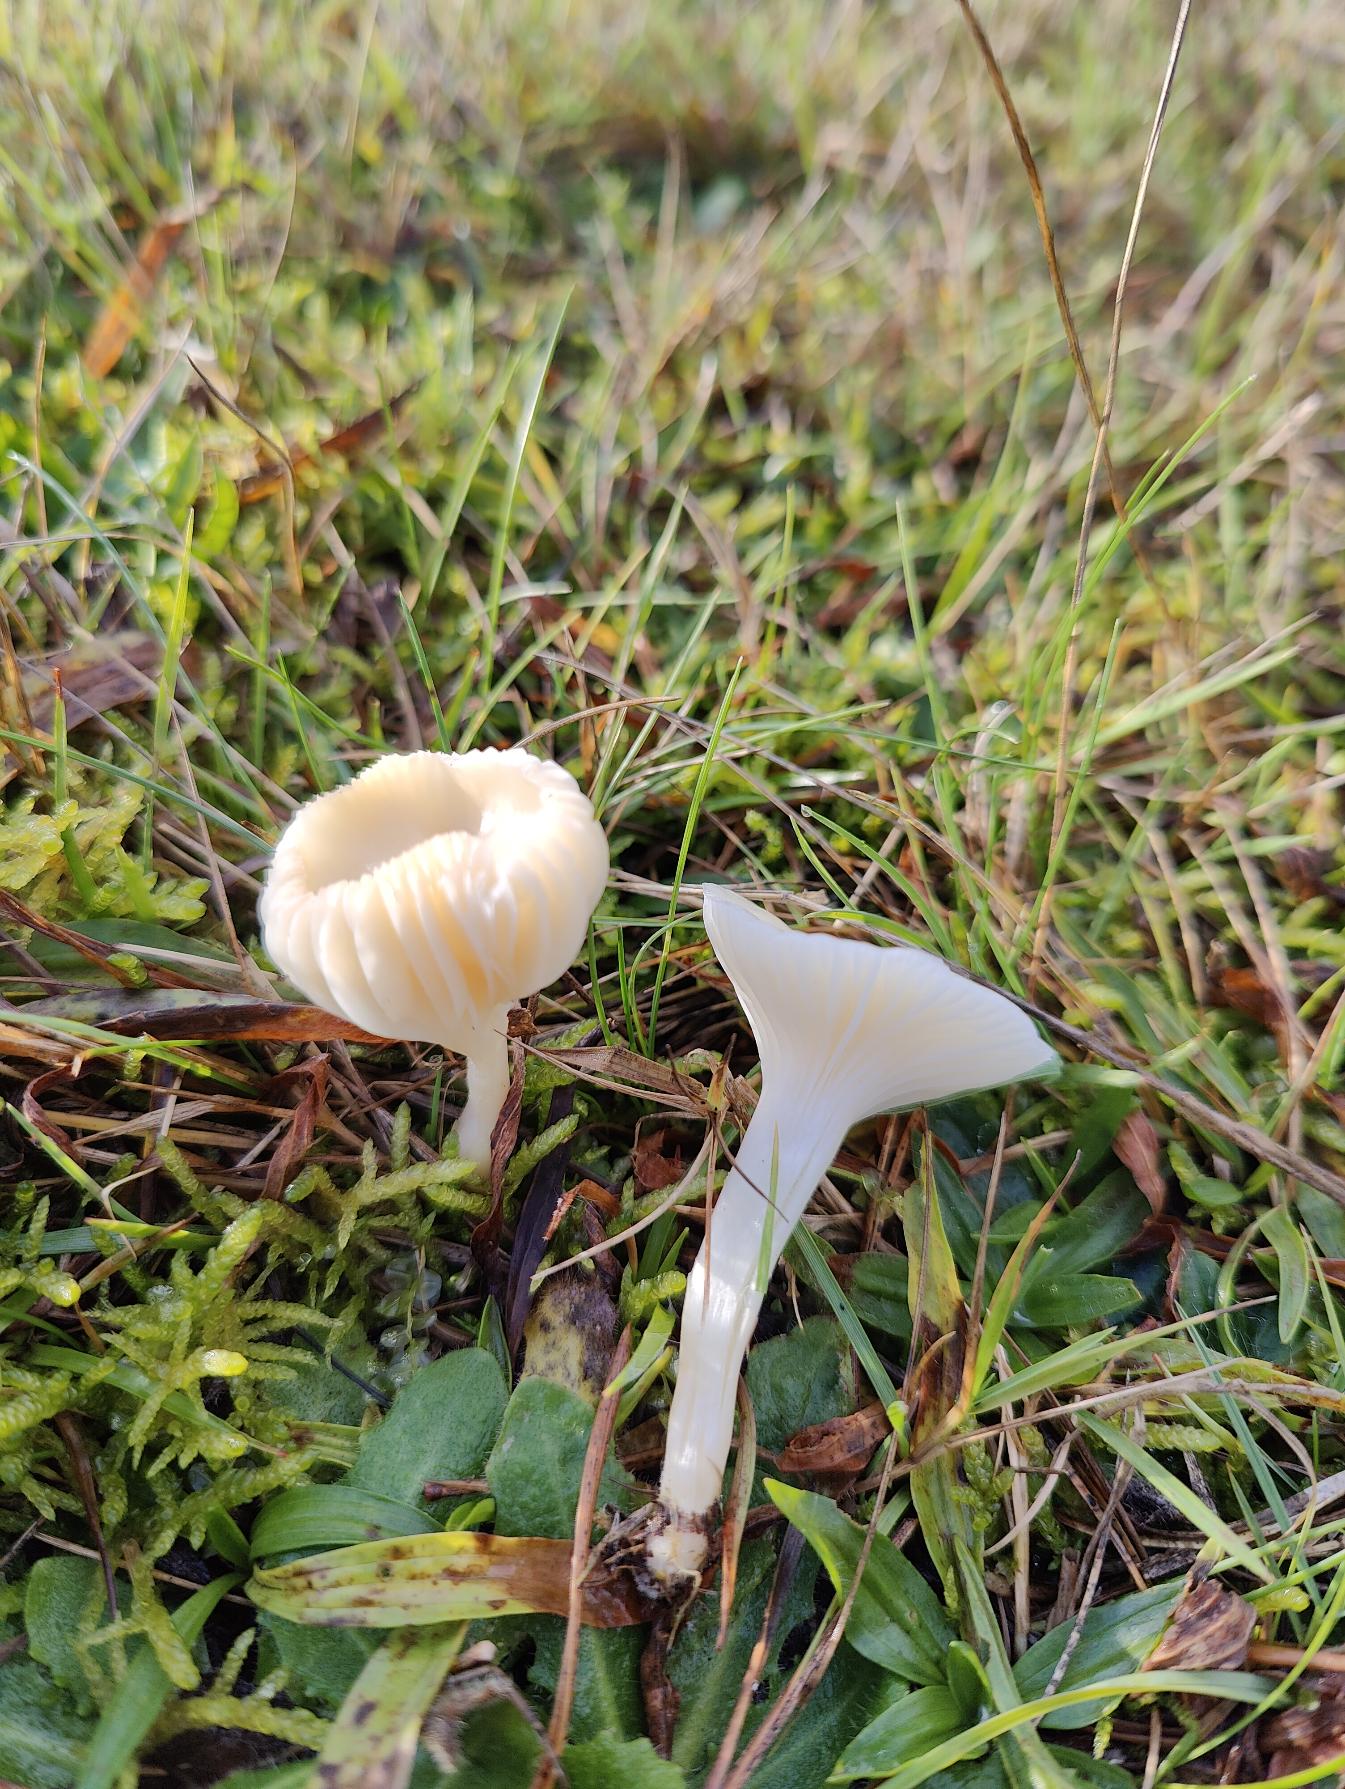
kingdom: Fungi
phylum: Basidiomycota
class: Agaricomycetes
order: Agaricales
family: Hygrophoraceae
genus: Cuphophyllus
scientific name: Cuphophyllus virgineus
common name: Snehvid vokshat
